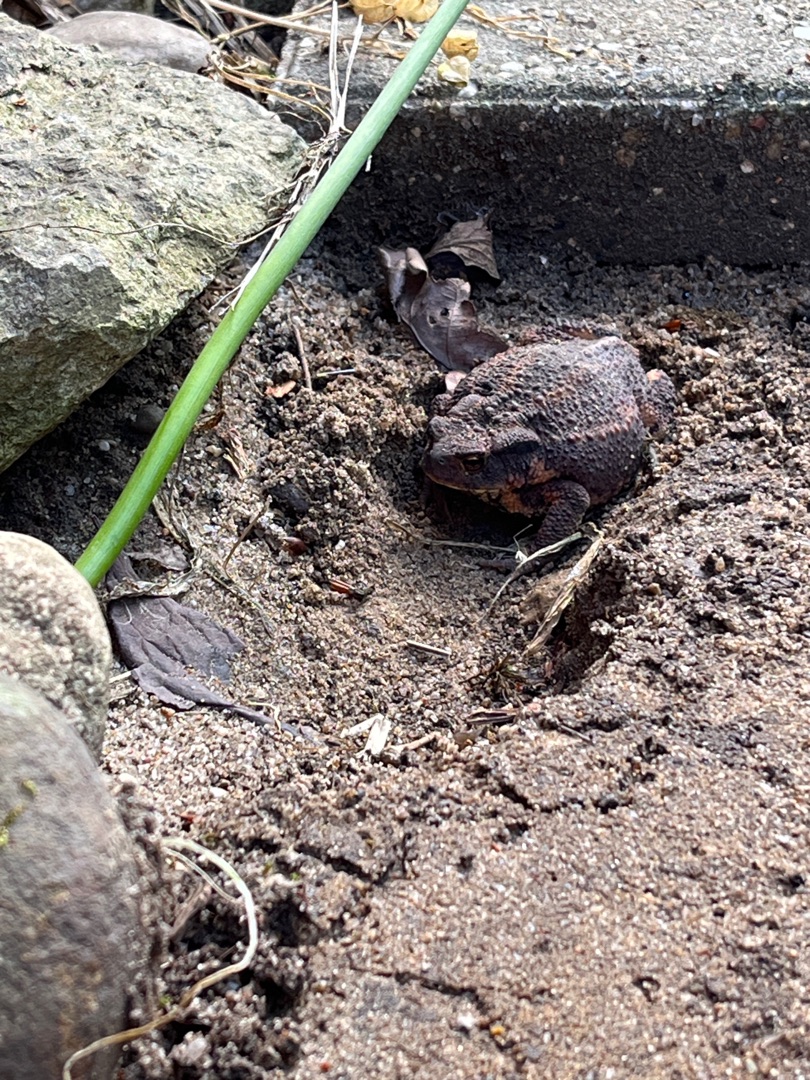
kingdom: Animalia
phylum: Chordata
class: Amphibia
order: Anura
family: Bufonidae
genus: Bufo
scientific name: Bufo bufo
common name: Skrubtudse
